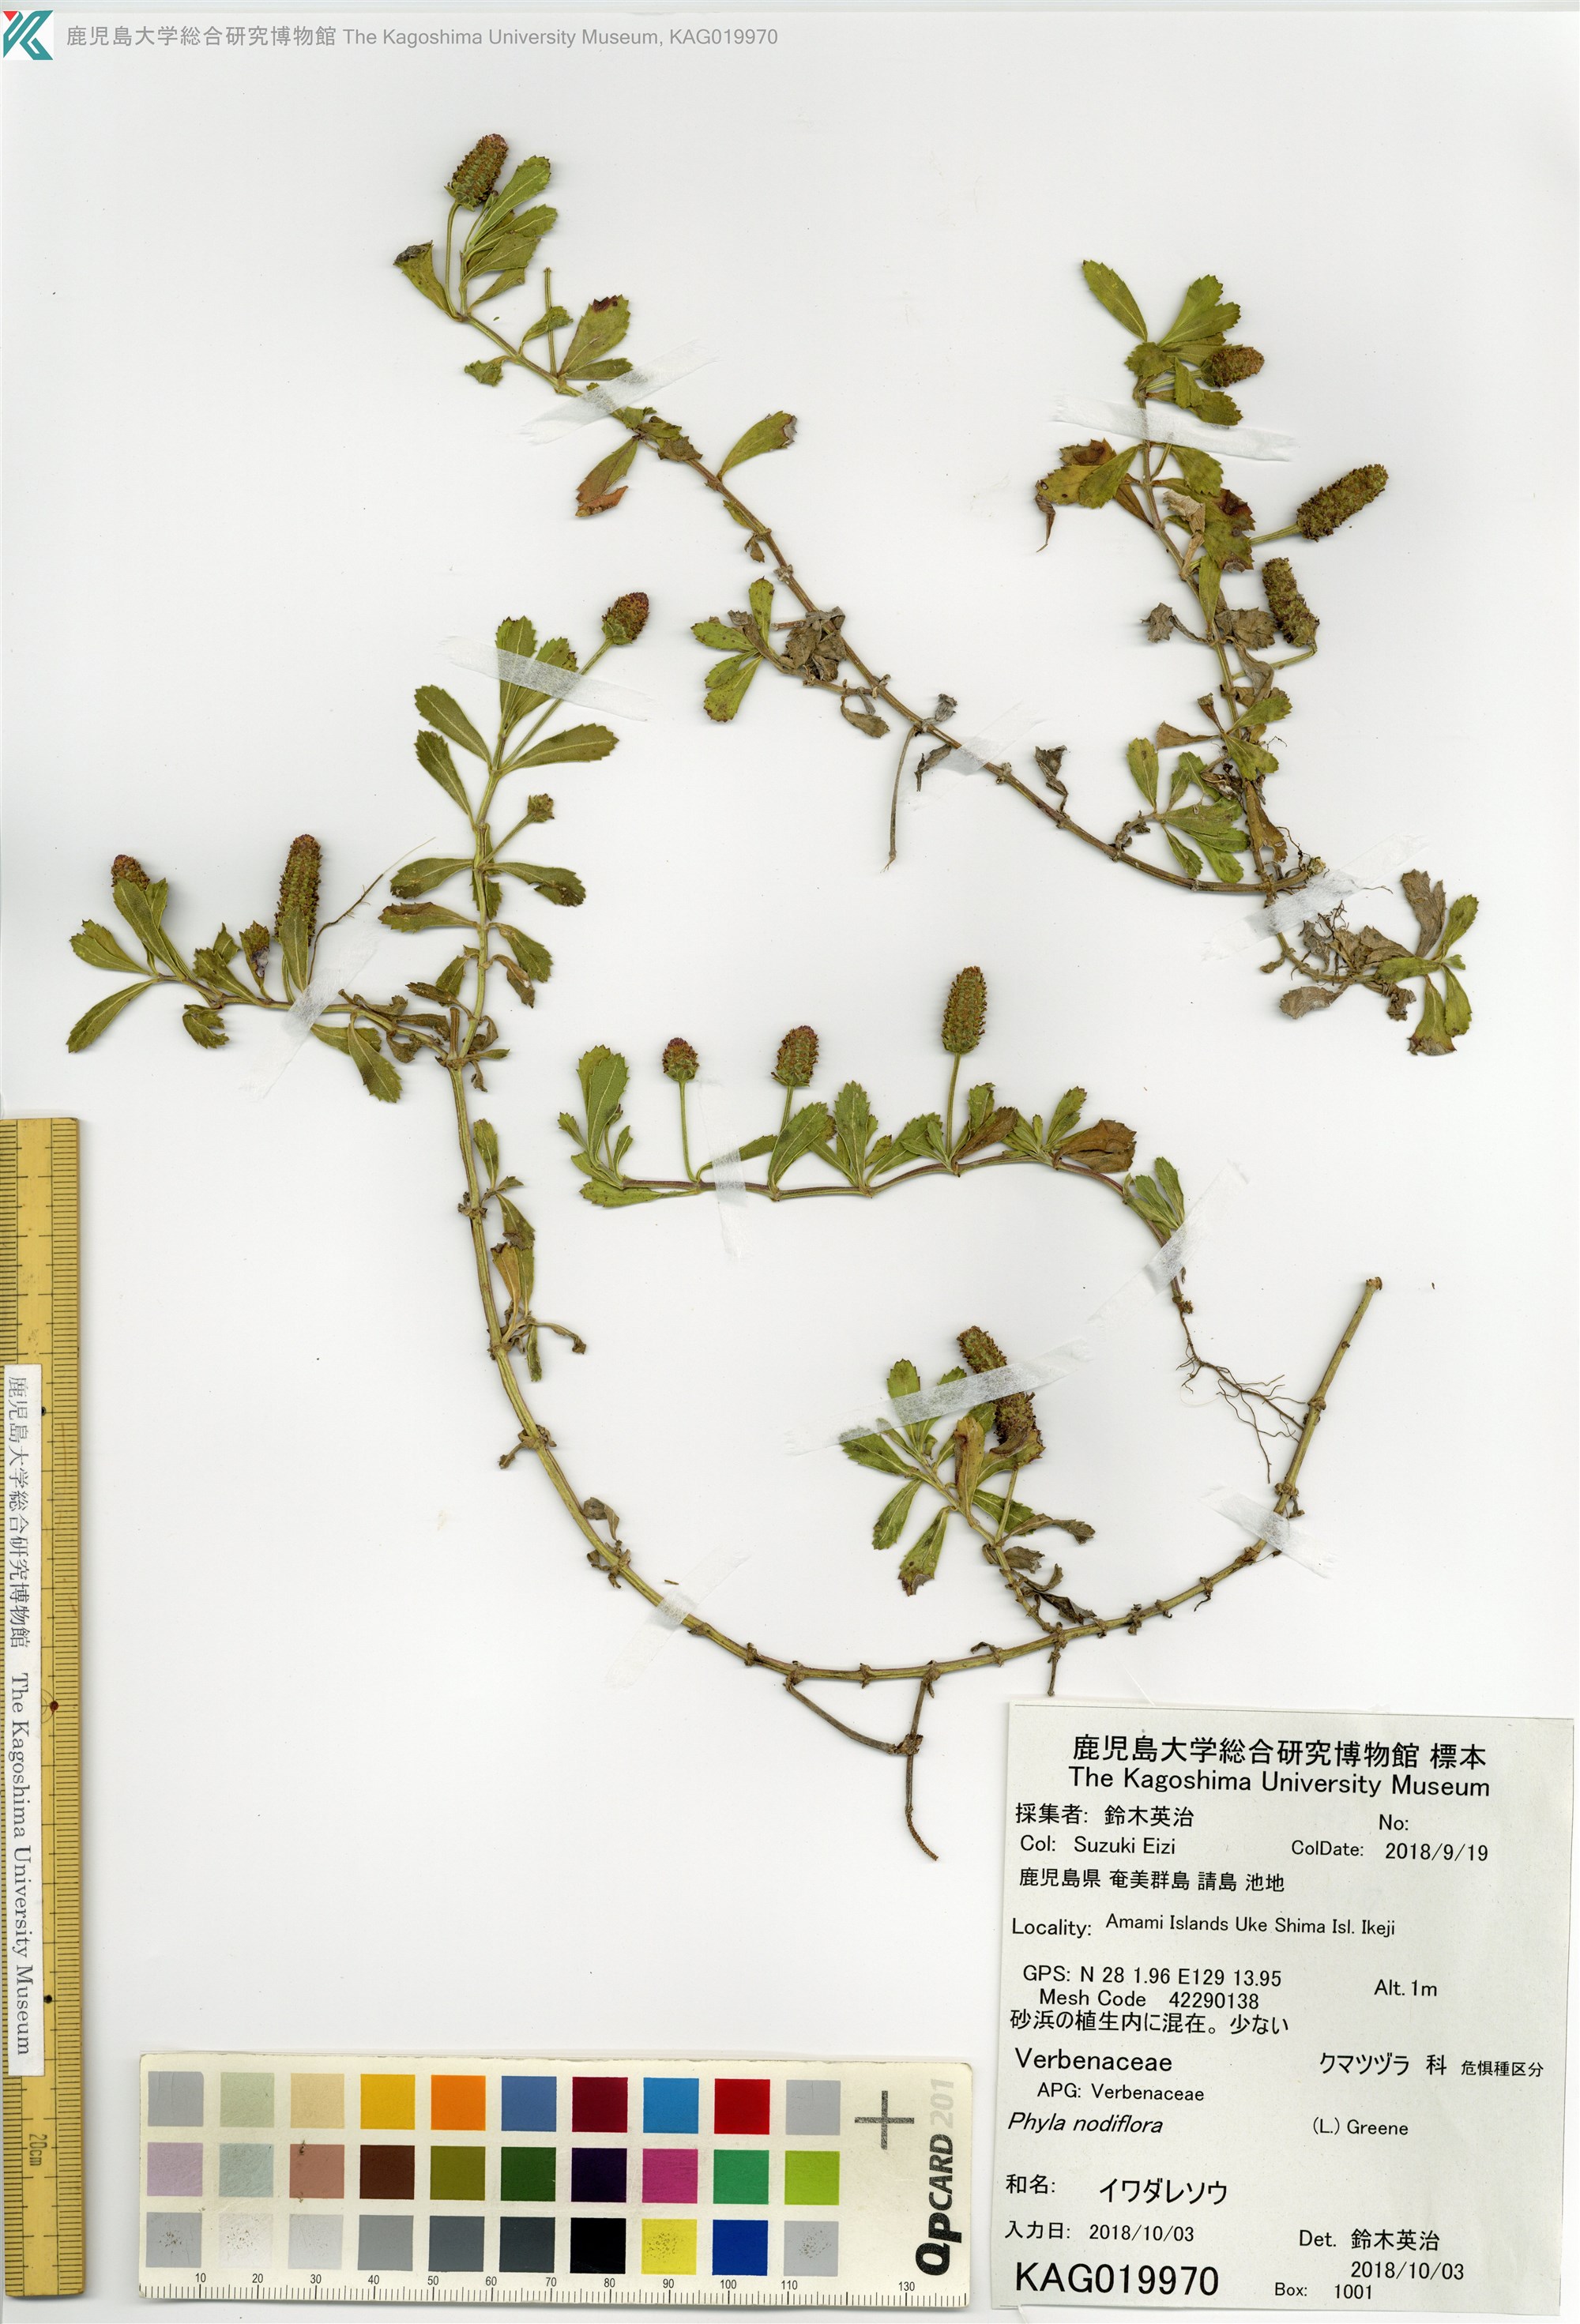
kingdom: Plantae
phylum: Tracheophyta
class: Magnoliopsida
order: Lamiales
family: Verbenaceae
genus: Phyla
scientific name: Phyla nodiflora
